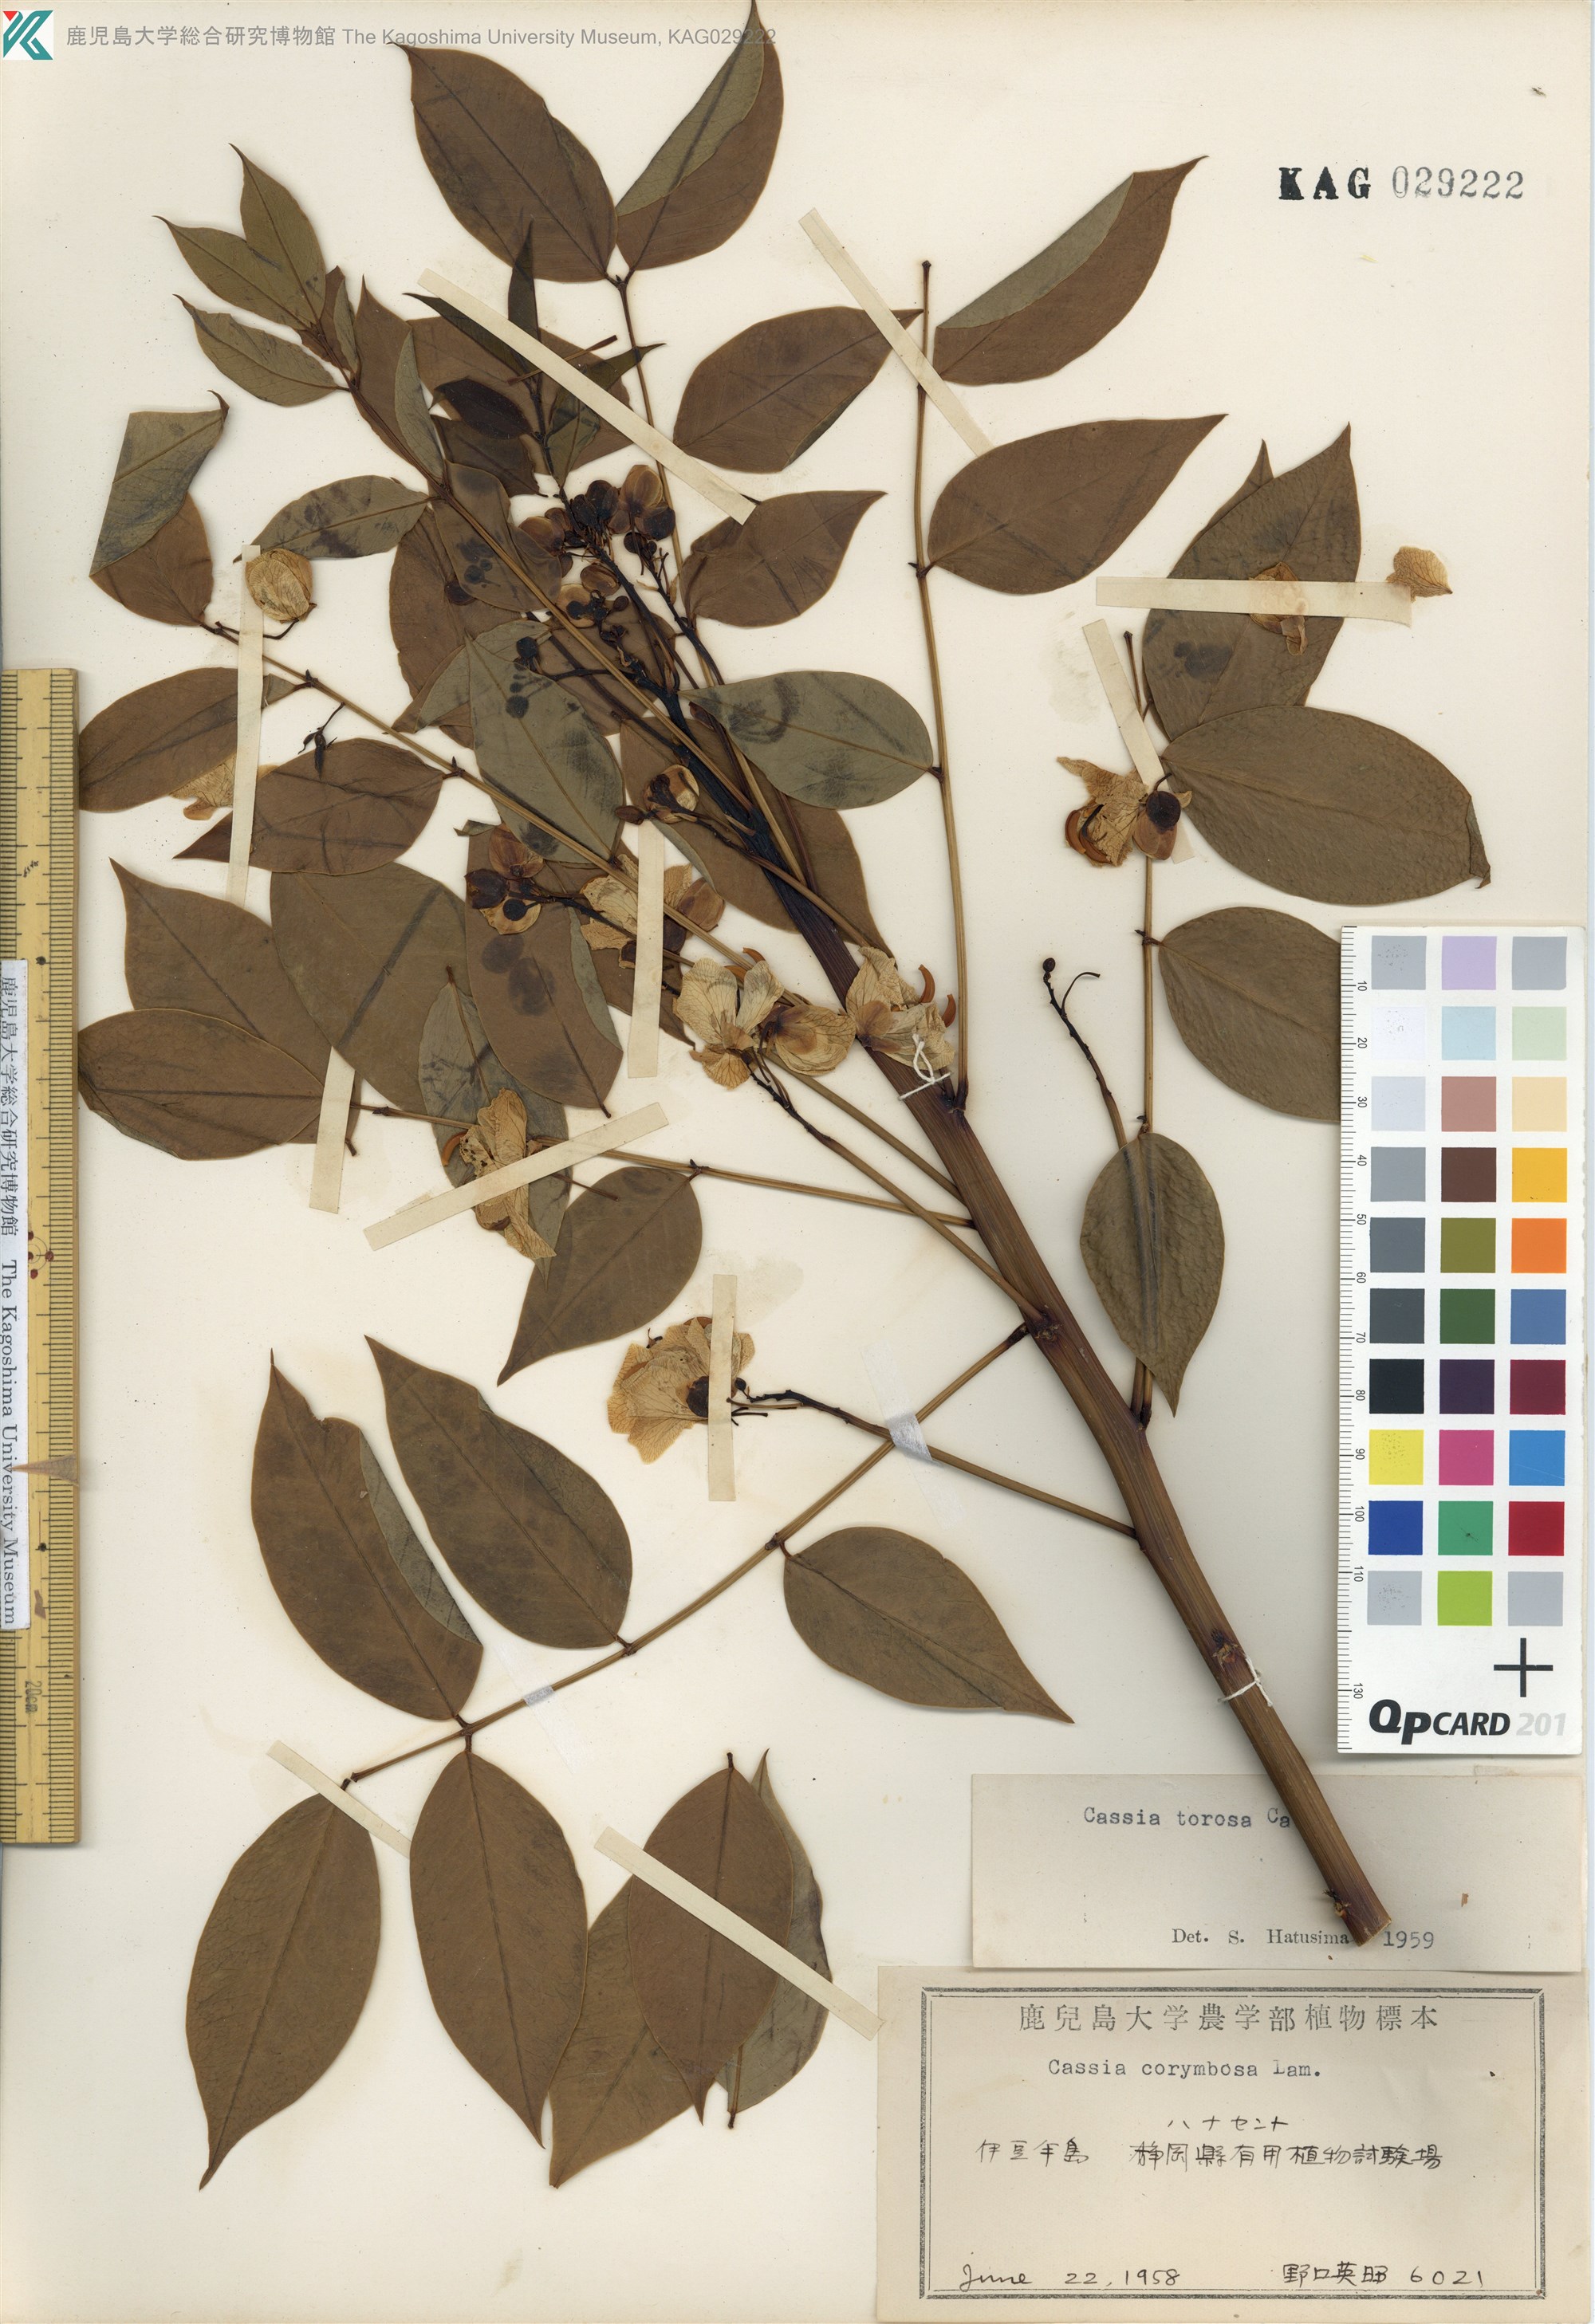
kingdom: Plantae
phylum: Tracheophyta
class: Magnoliopsida
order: Fabales
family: Fabaceae
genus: Senna
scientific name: Senna occidentalis
